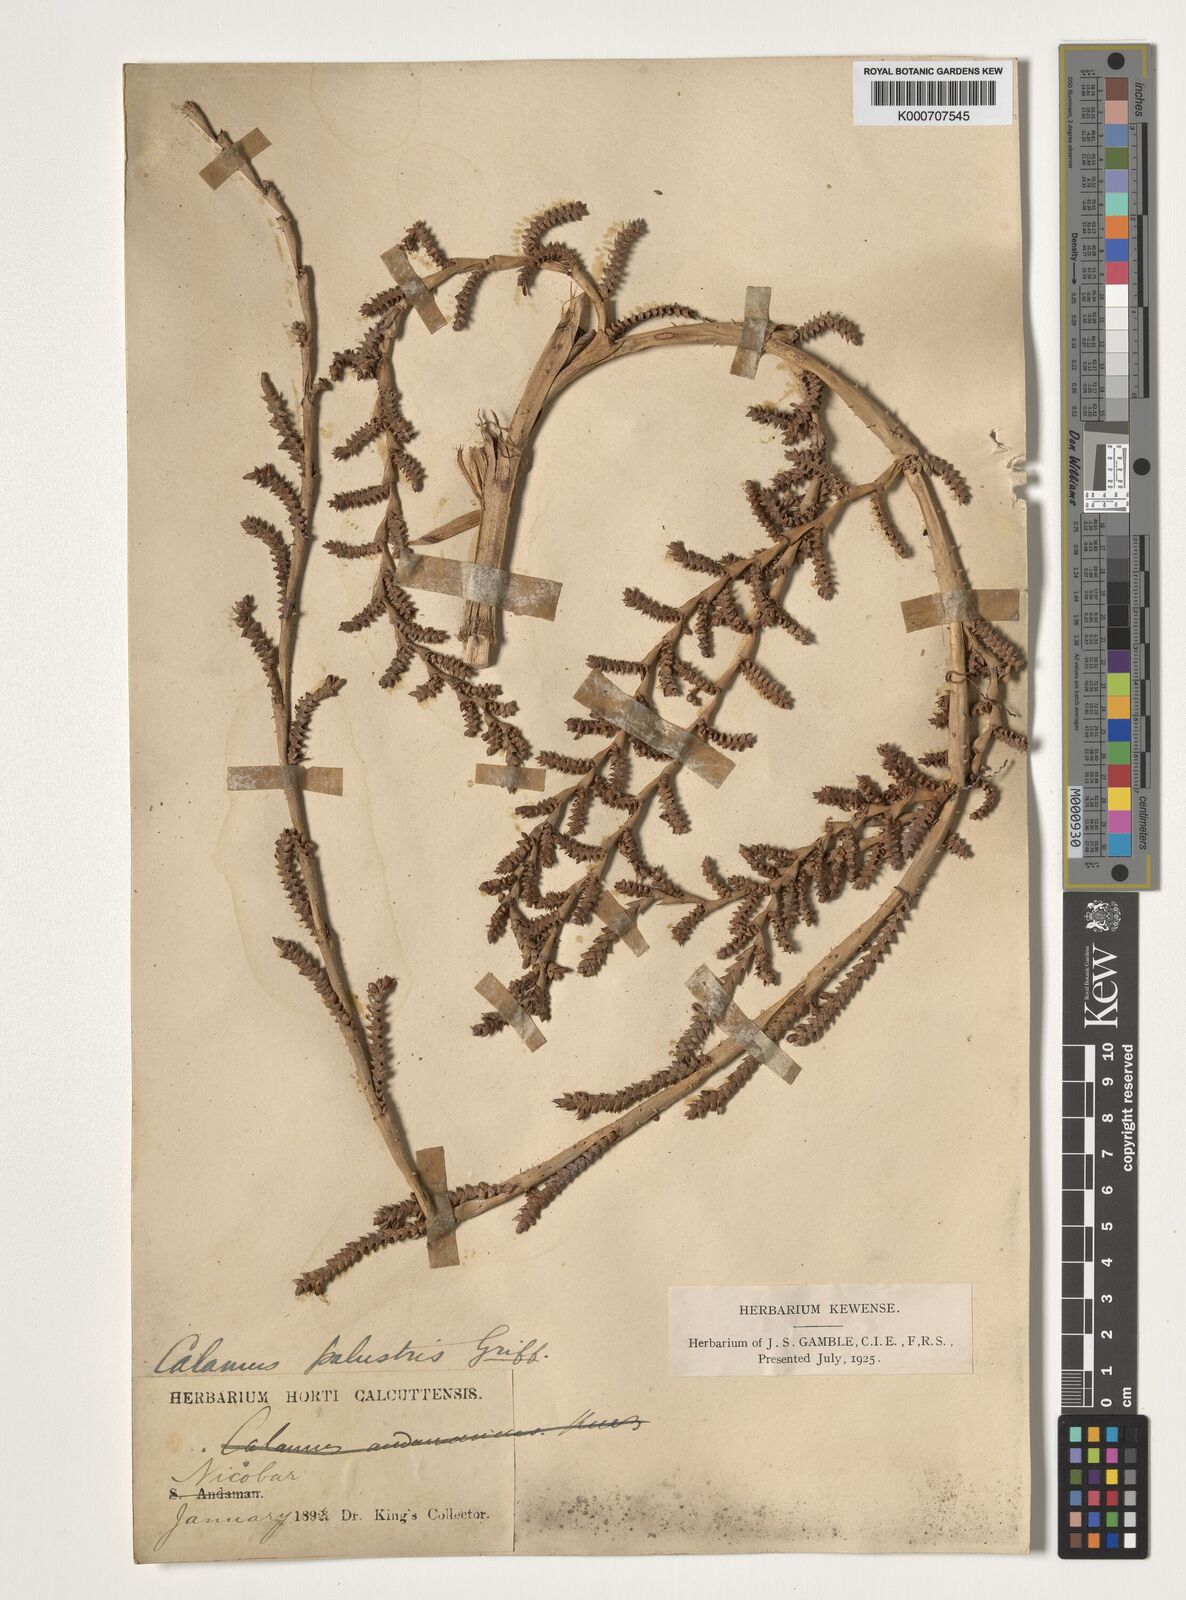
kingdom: Plantae
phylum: Tracheophyta
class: Liliopsida
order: Arecales
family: Arecaceae
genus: Calamus
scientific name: Calamus latifolius
